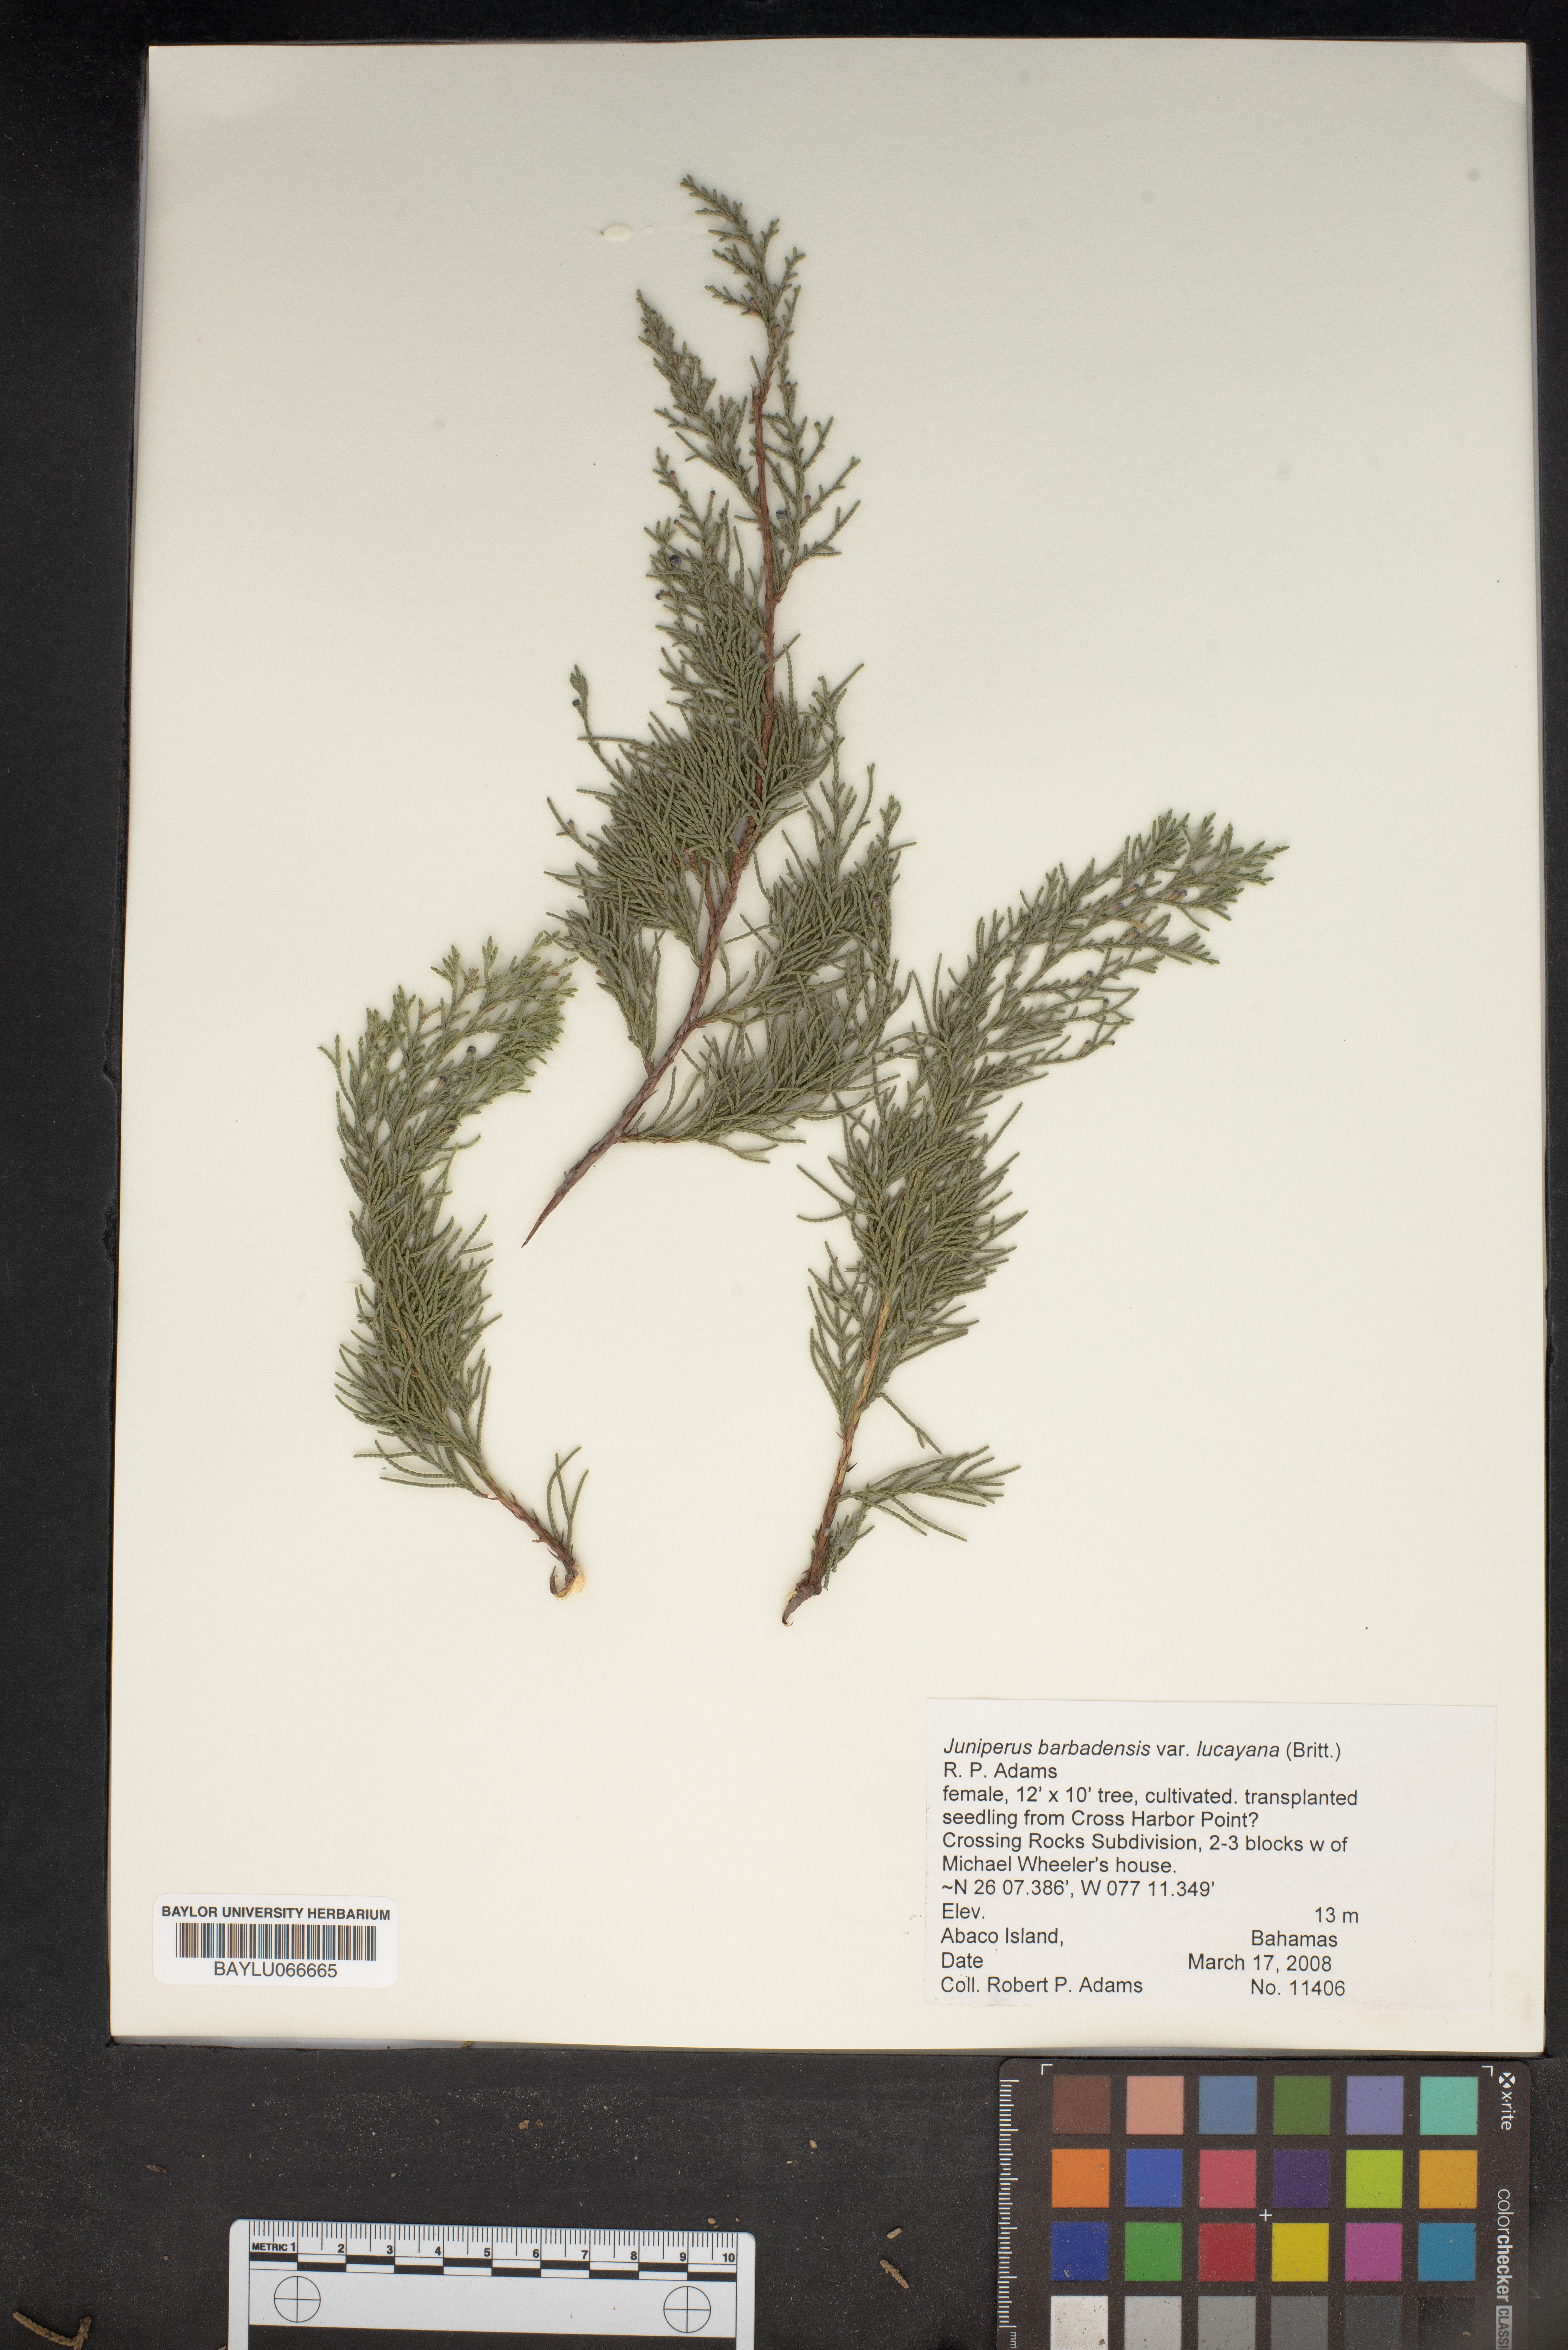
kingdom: Plantae
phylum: Tracheophyta
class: Pinopsida
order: Pinales
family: Cupressaceae
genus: Juniperus
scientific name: Juniperus barbadensis
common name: West indies juniper
